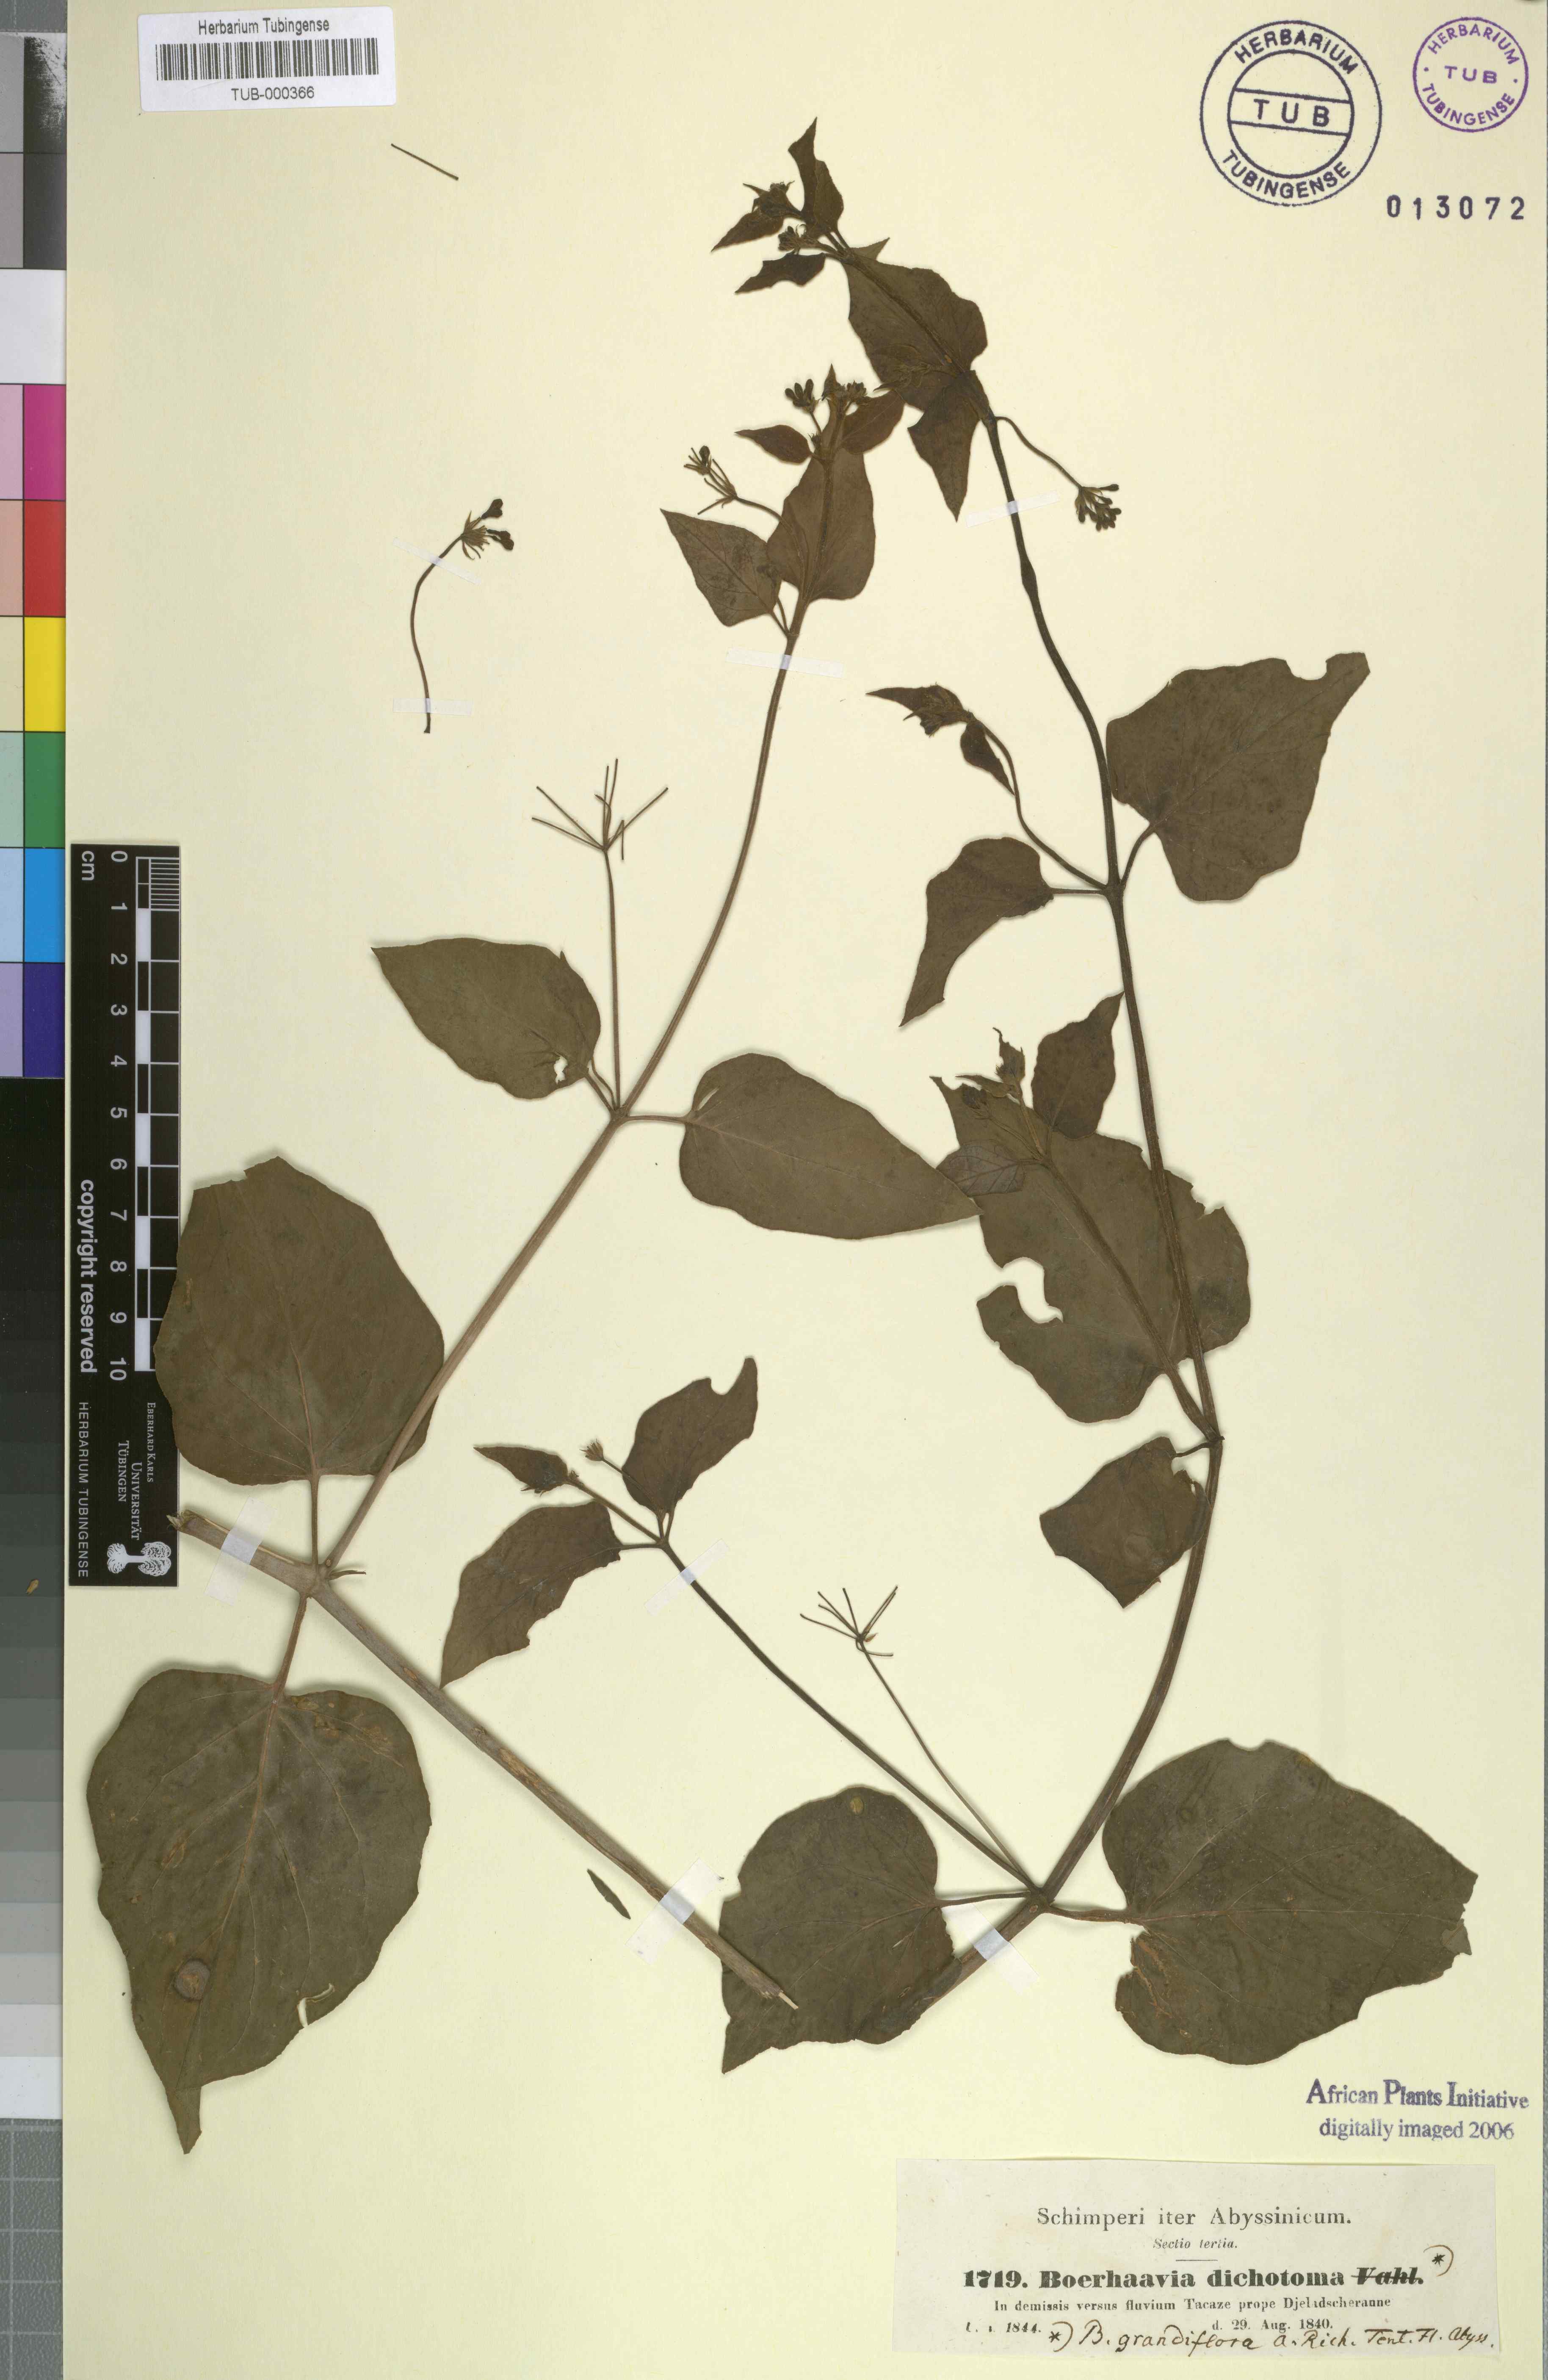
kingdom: Plantae
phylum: Tracheophyta
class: Magnoliopsida
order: Caryophyllales
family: Nyctaginaceae
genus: Commicarpus
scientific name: Commicarpus plumbagineus
